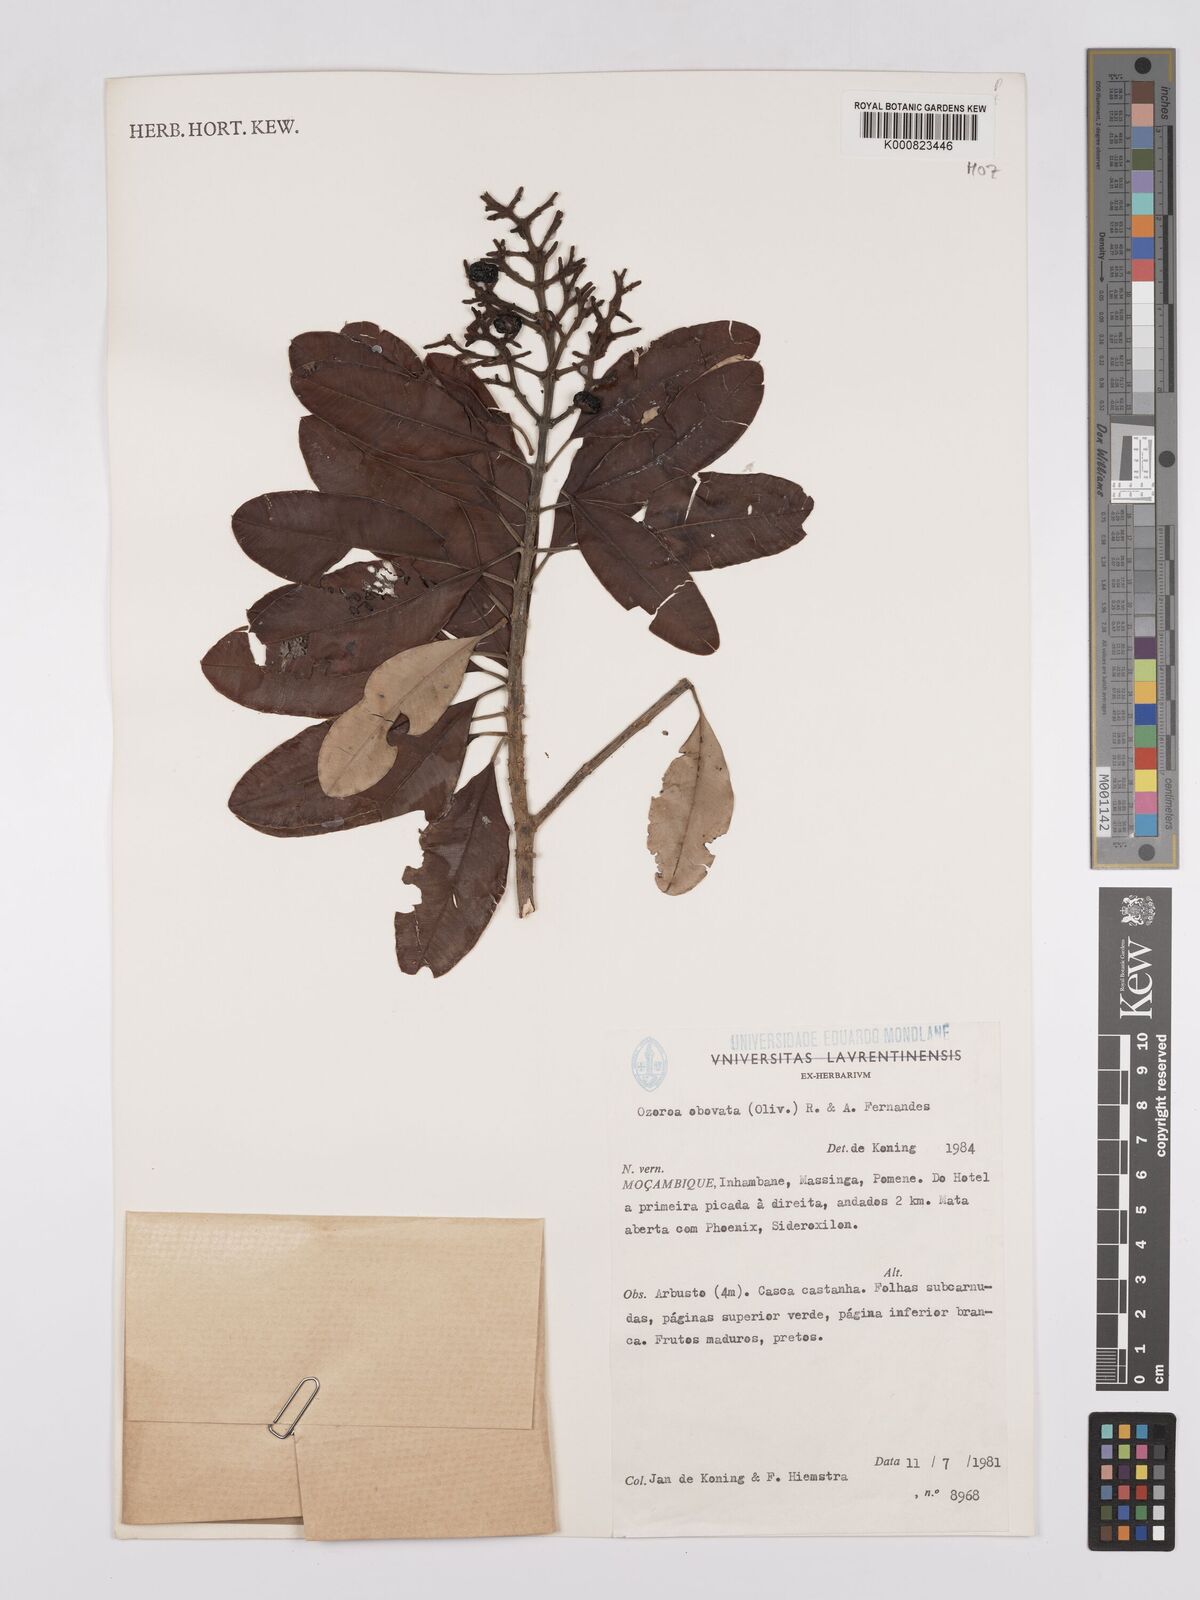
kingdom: Plantae
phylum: Tracheophyta
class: Magnoliopsida
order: Sapindales
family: Anacardiaceae
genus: Ozoroa
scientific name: Ozoroa obovata
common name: Broad-leaved resin tree
